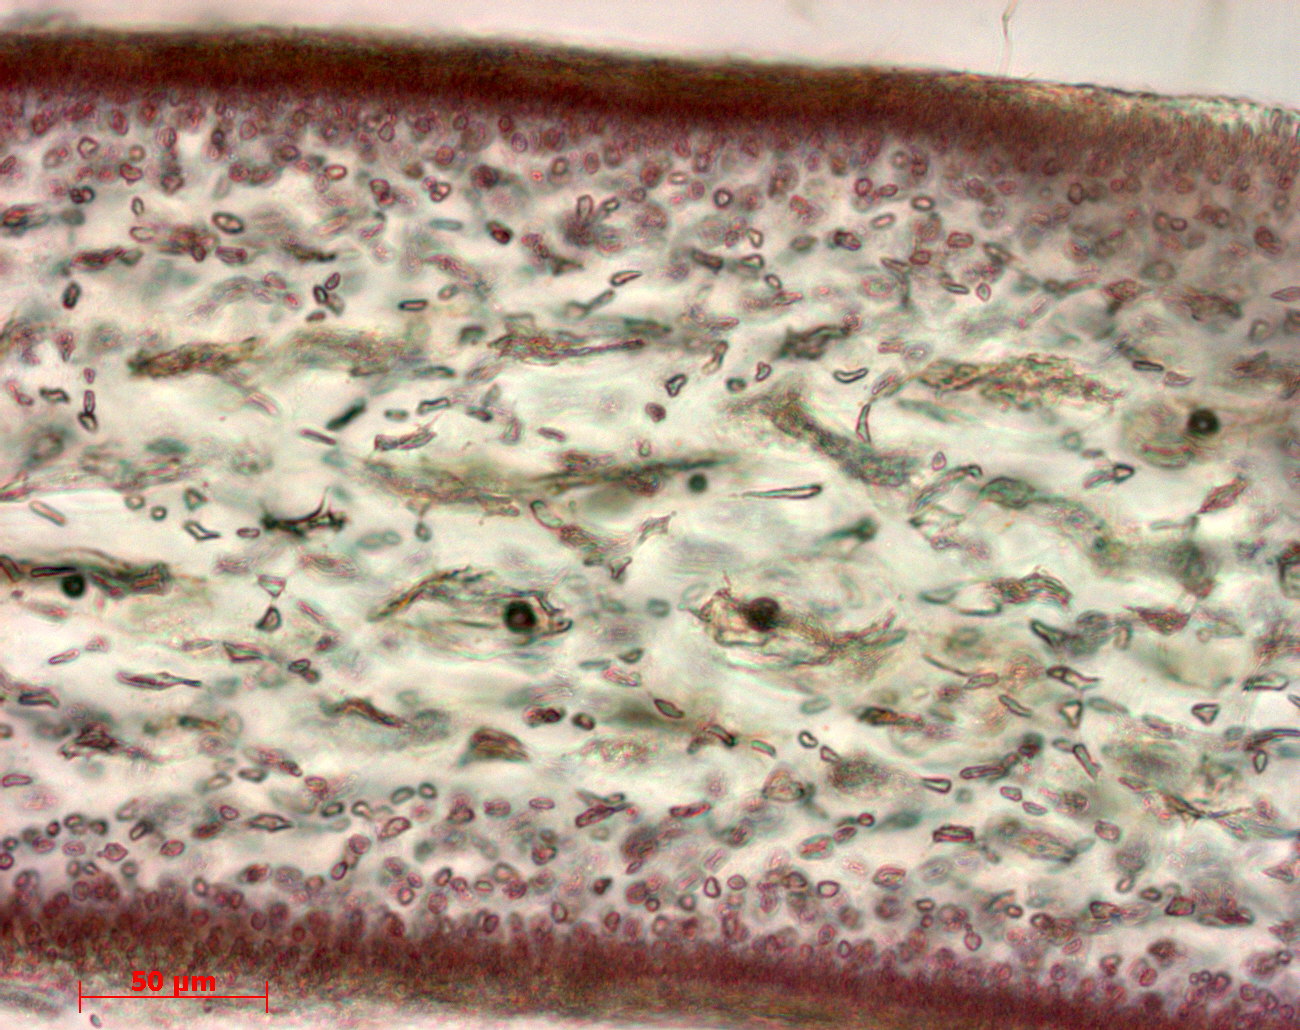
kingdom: Plantae
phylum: Rhodophyta
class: Florideophyceae
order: Gigartinales
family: Kallymeniaceae
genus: Psaromenia
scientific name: Psaromenia berggrenii
